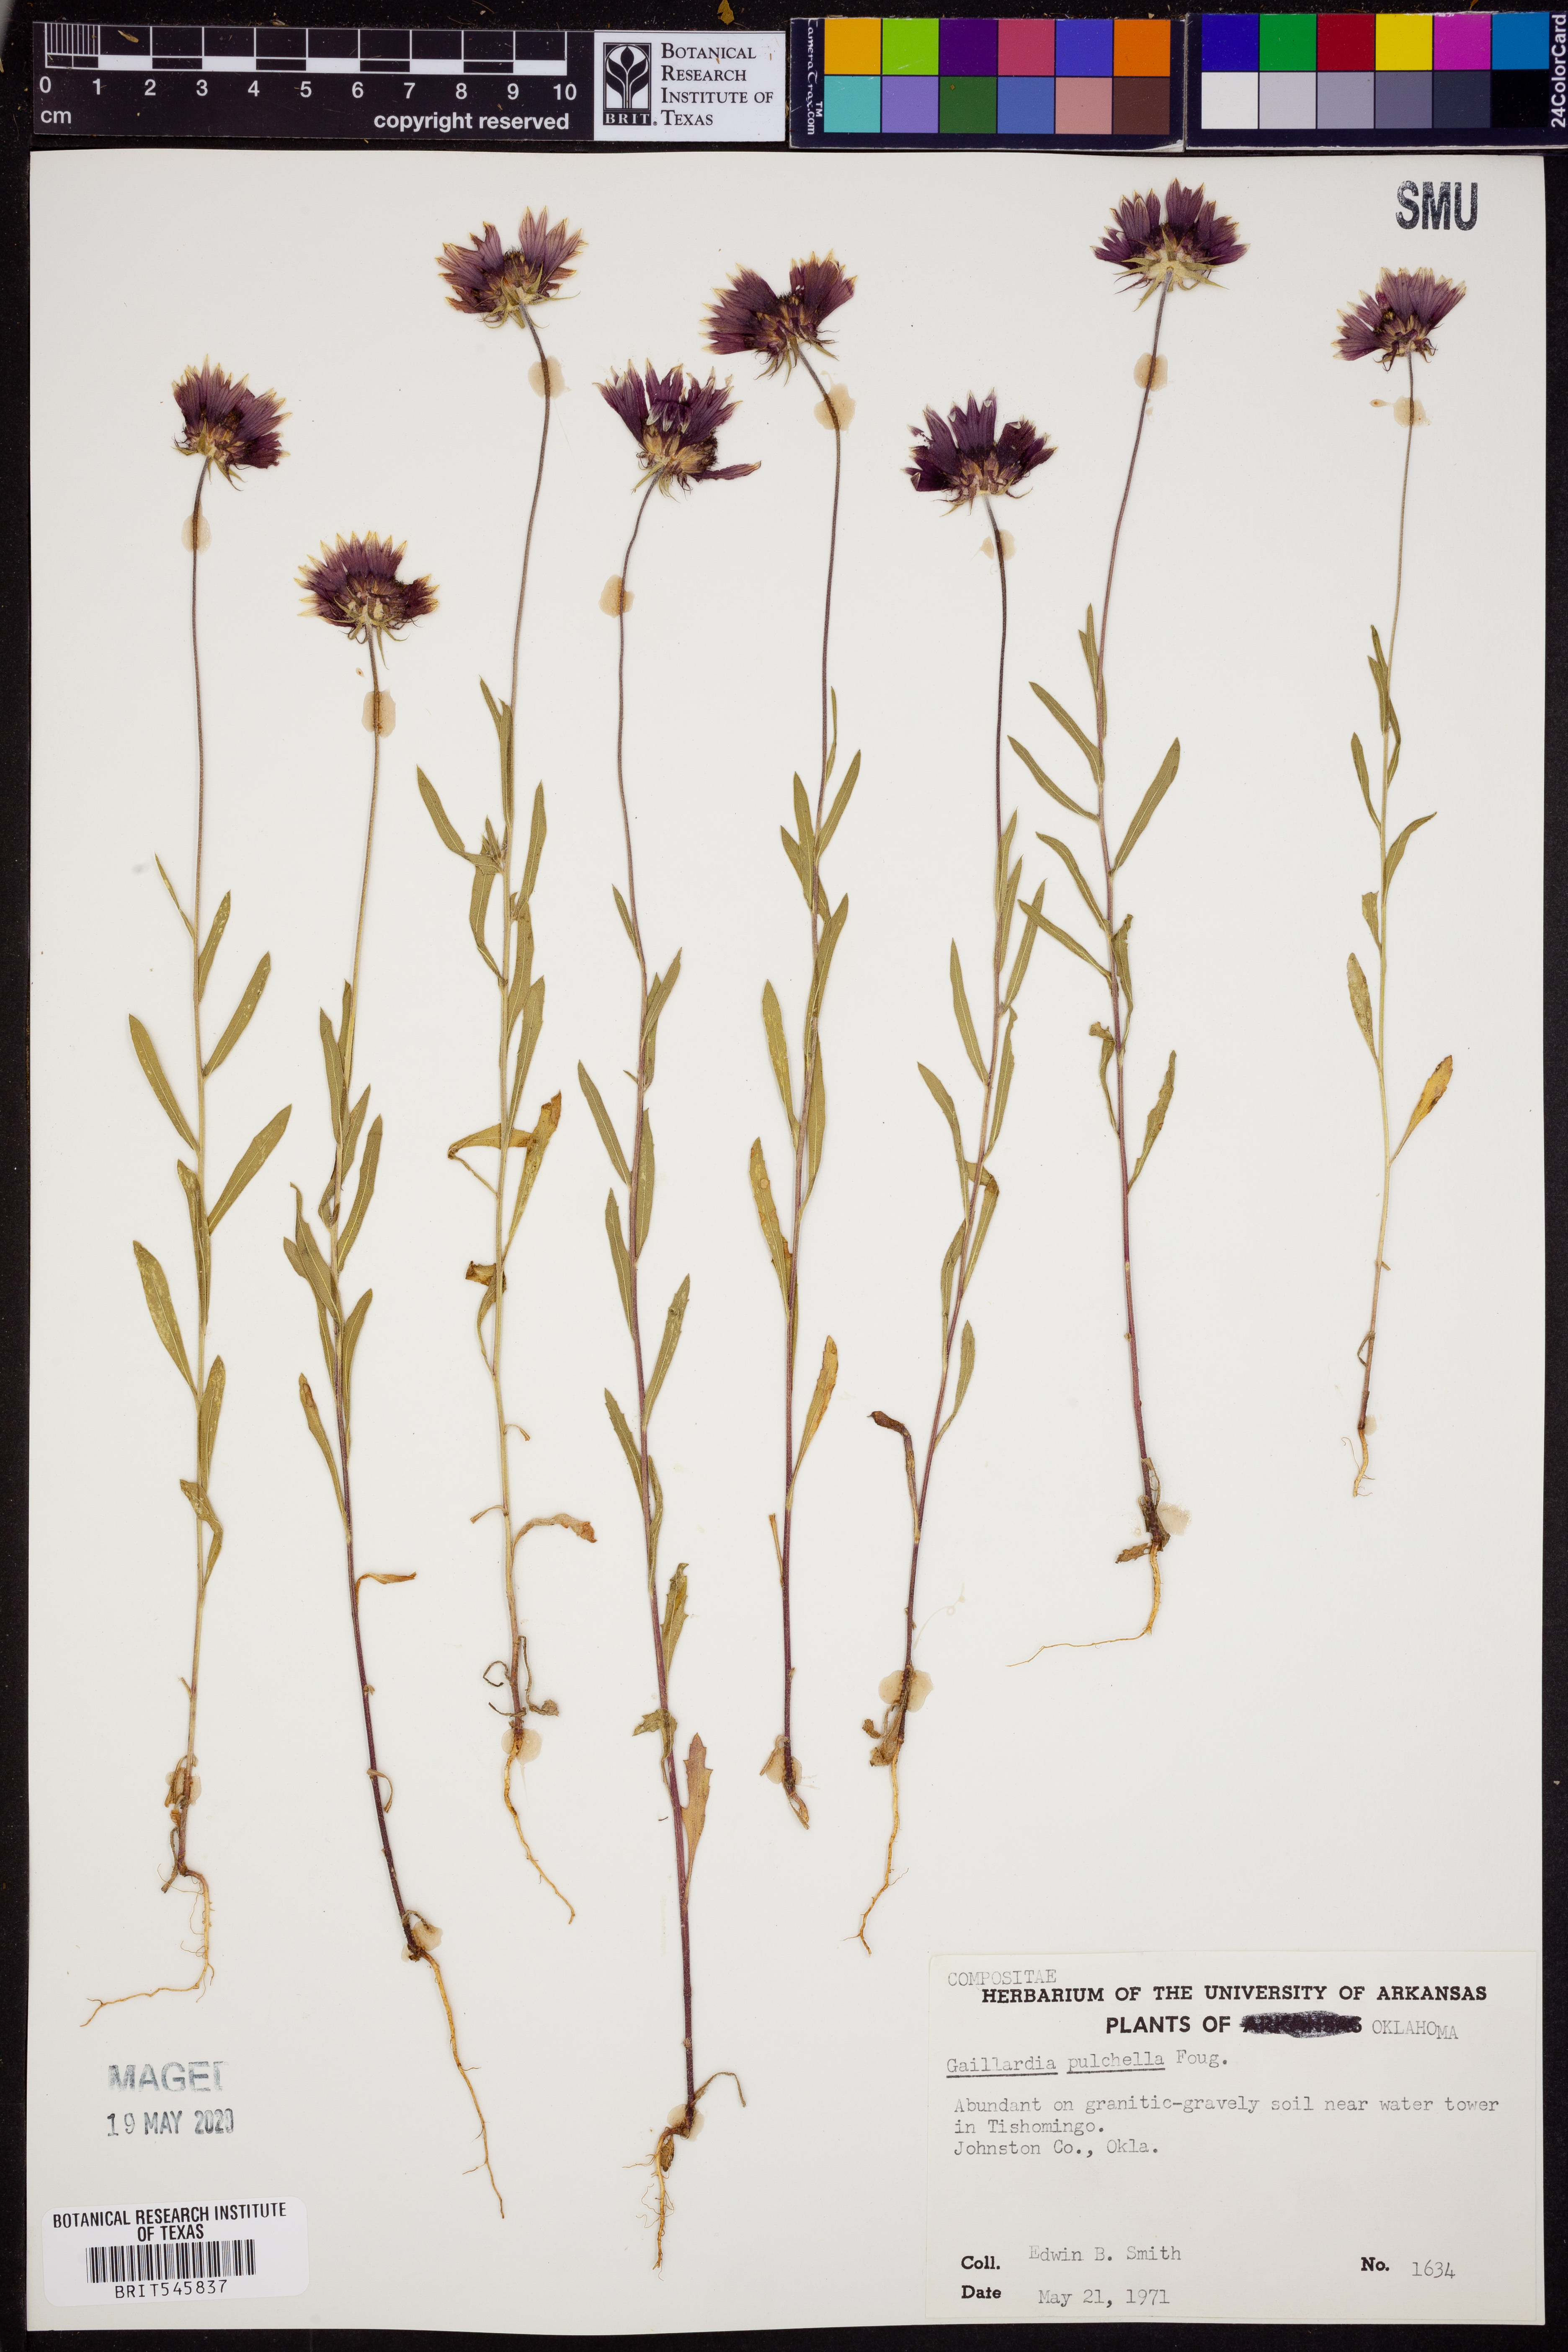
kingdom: Plantae
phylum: Tracheophyta
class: Magnoliopsida
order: Asterales
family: Asteraceae
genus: Gaillardia
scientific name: Gaillardia pulchella
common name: Firewheel
